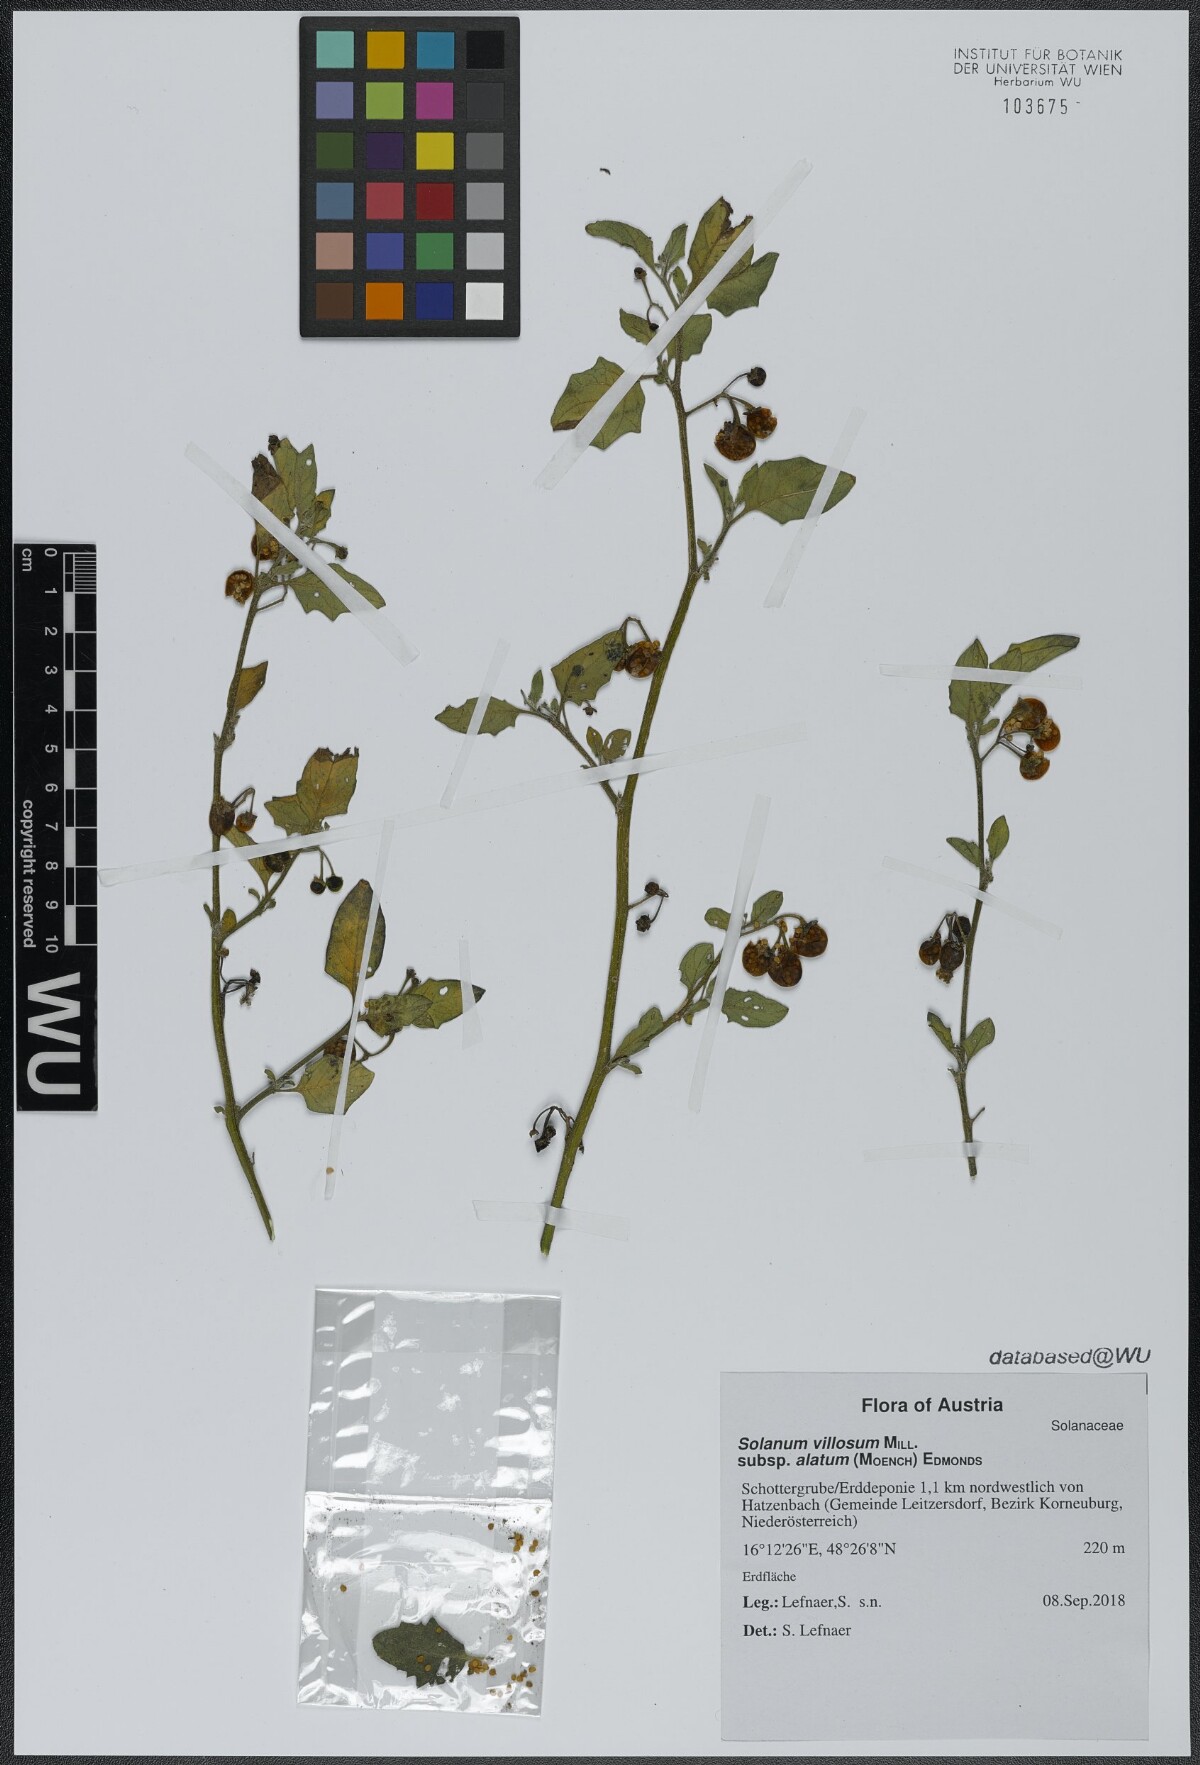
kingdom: Plantae
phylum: Tracheophyta
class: Magnoliopsida
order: Solanales
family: Solanaceae
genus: Solanum
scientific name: Solanum alatum
